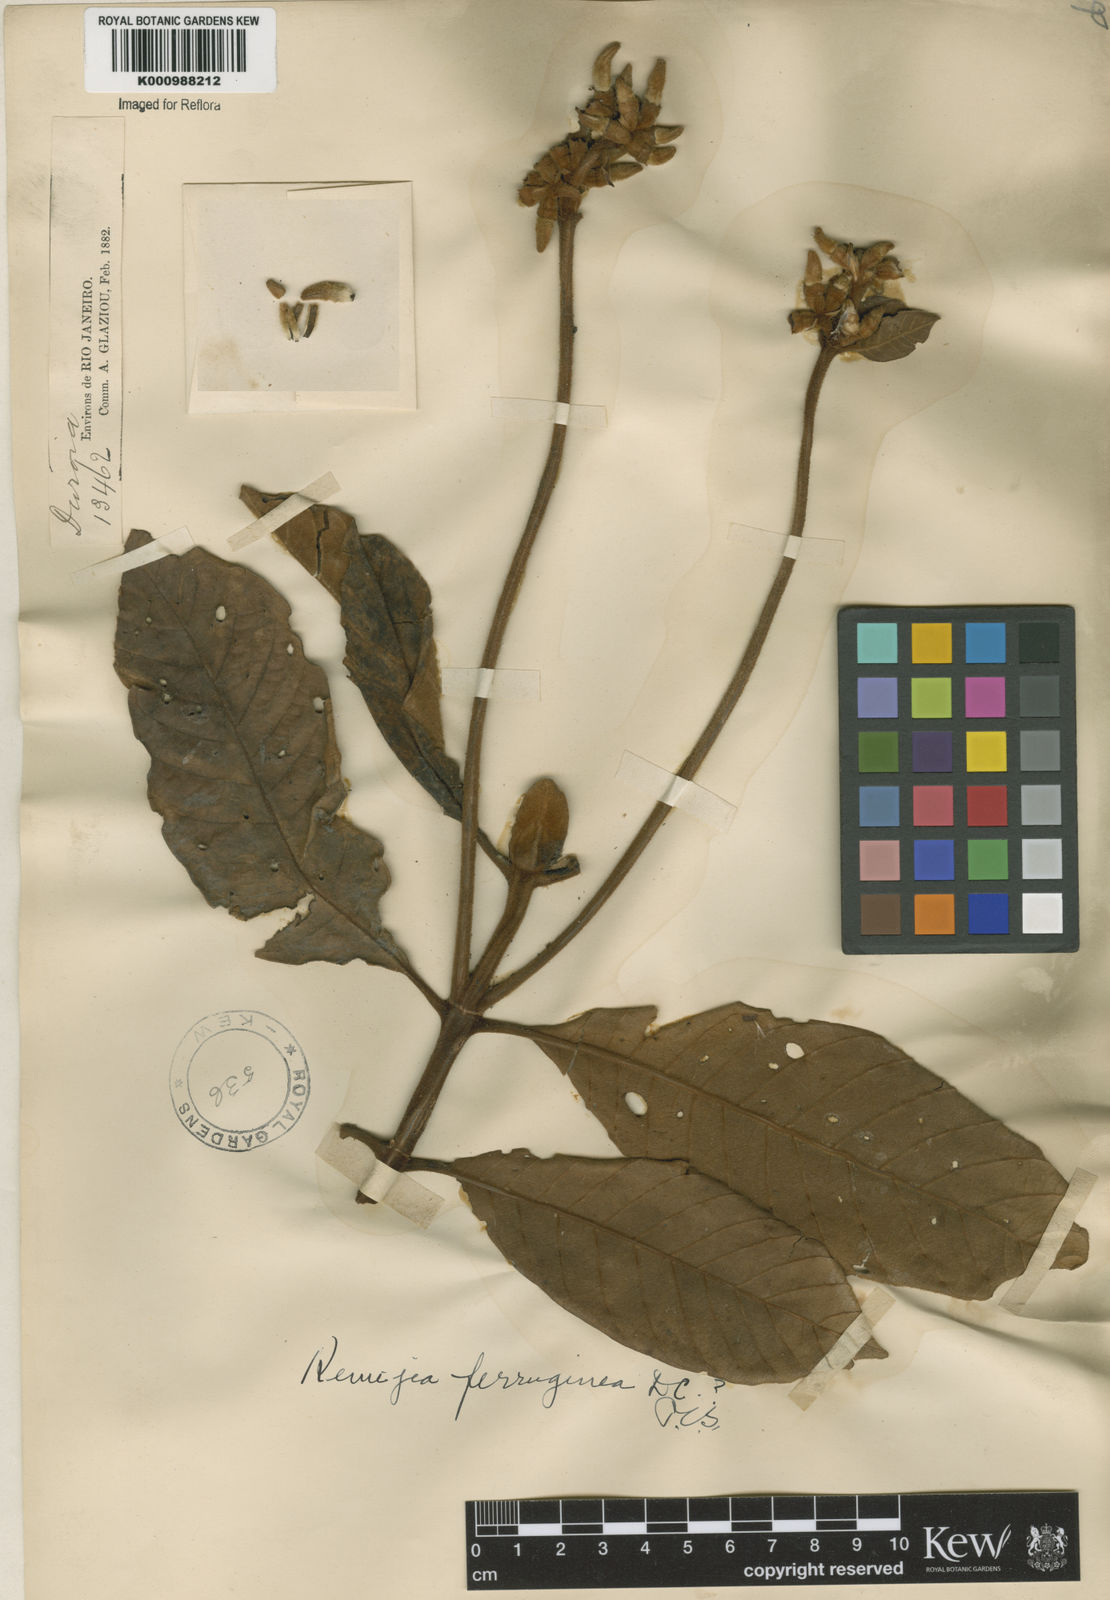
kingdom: Plantae
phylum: Tracheophyta
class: Magnoliopsida
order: Gentianales
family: Rubiaceae
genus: Remijia
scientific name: Remijia ferruginea
